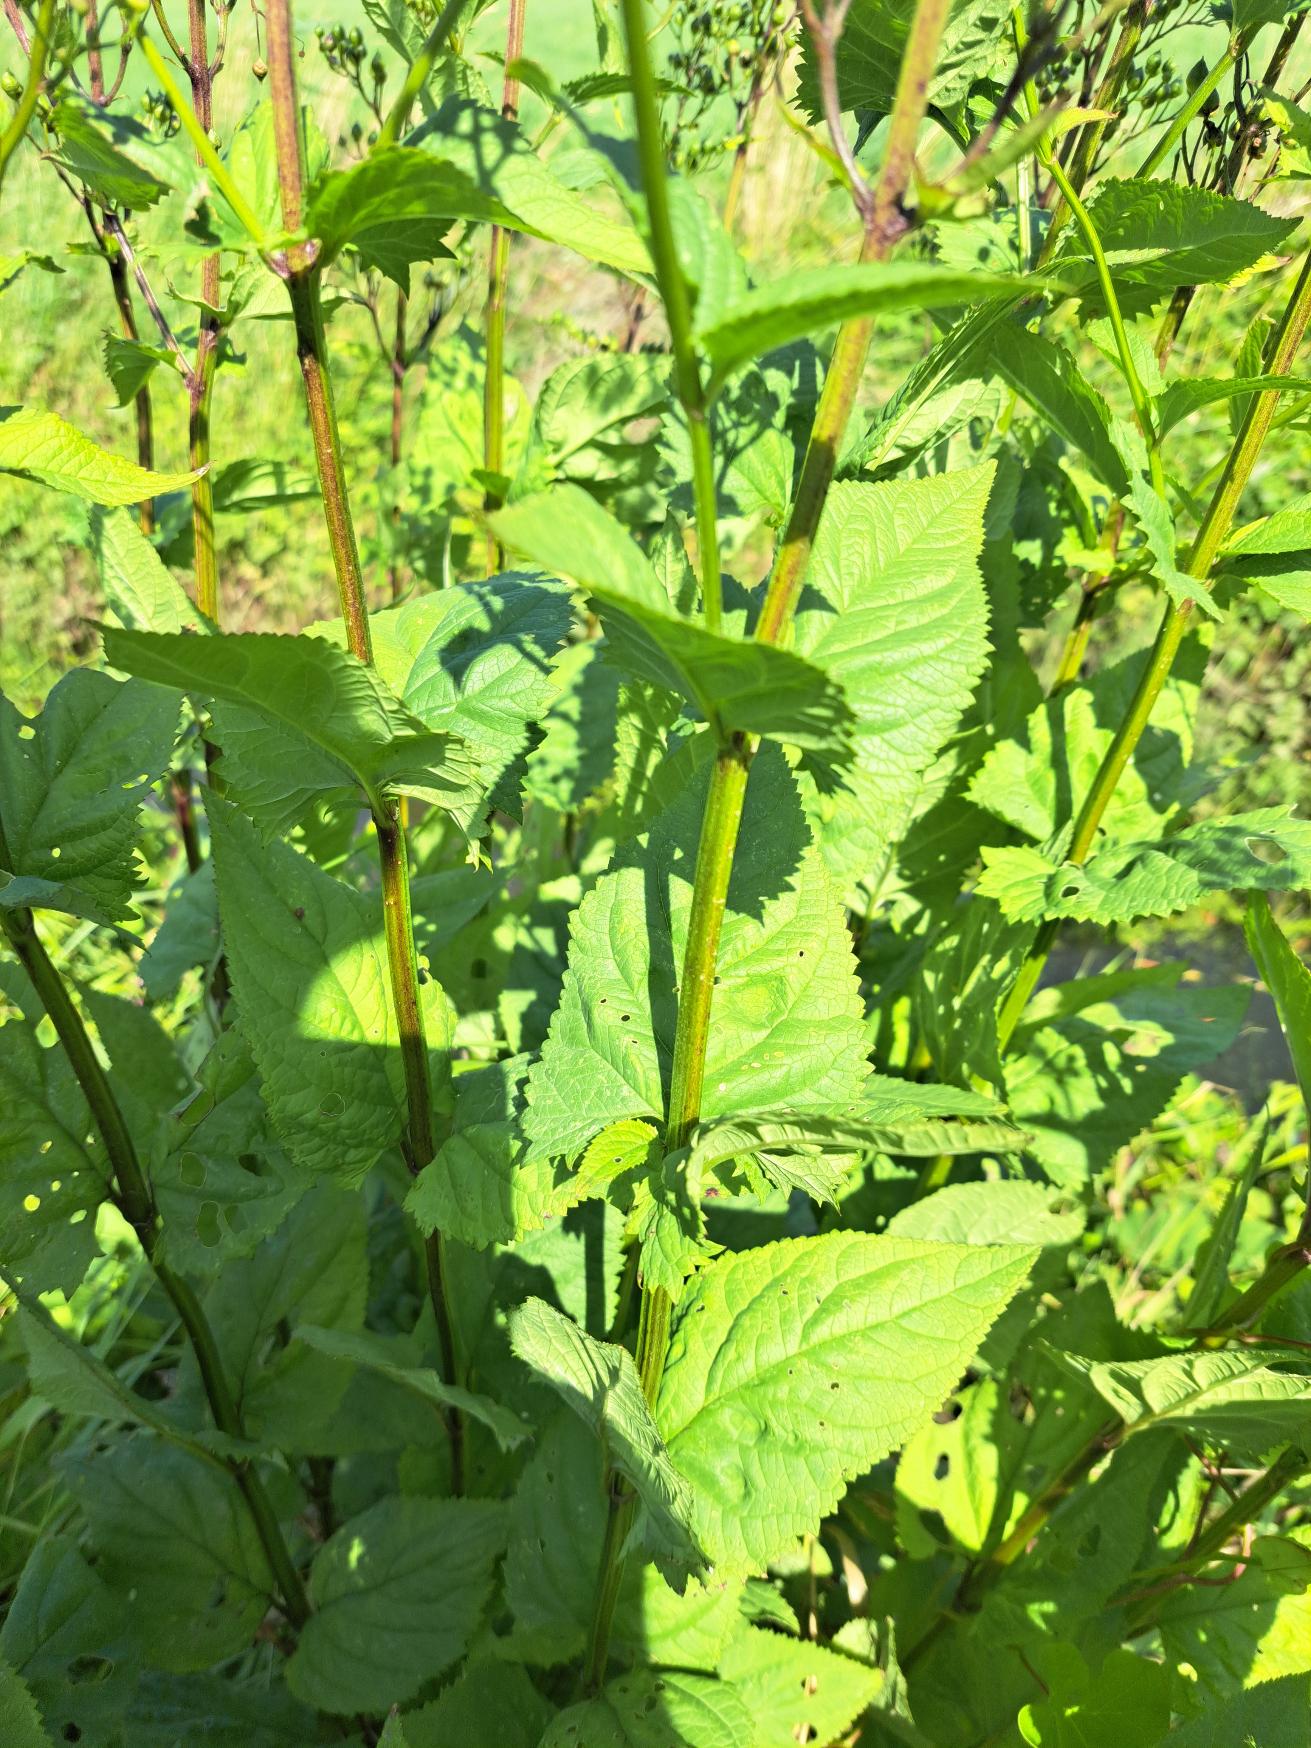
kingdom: Plantae
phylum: Tracheophyta
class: Magnoliopsida
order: Lamiales
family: Scrophulariaceae
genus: Scrophularia
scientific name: Scrophularia nodosa
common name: Knoldet brunrod
